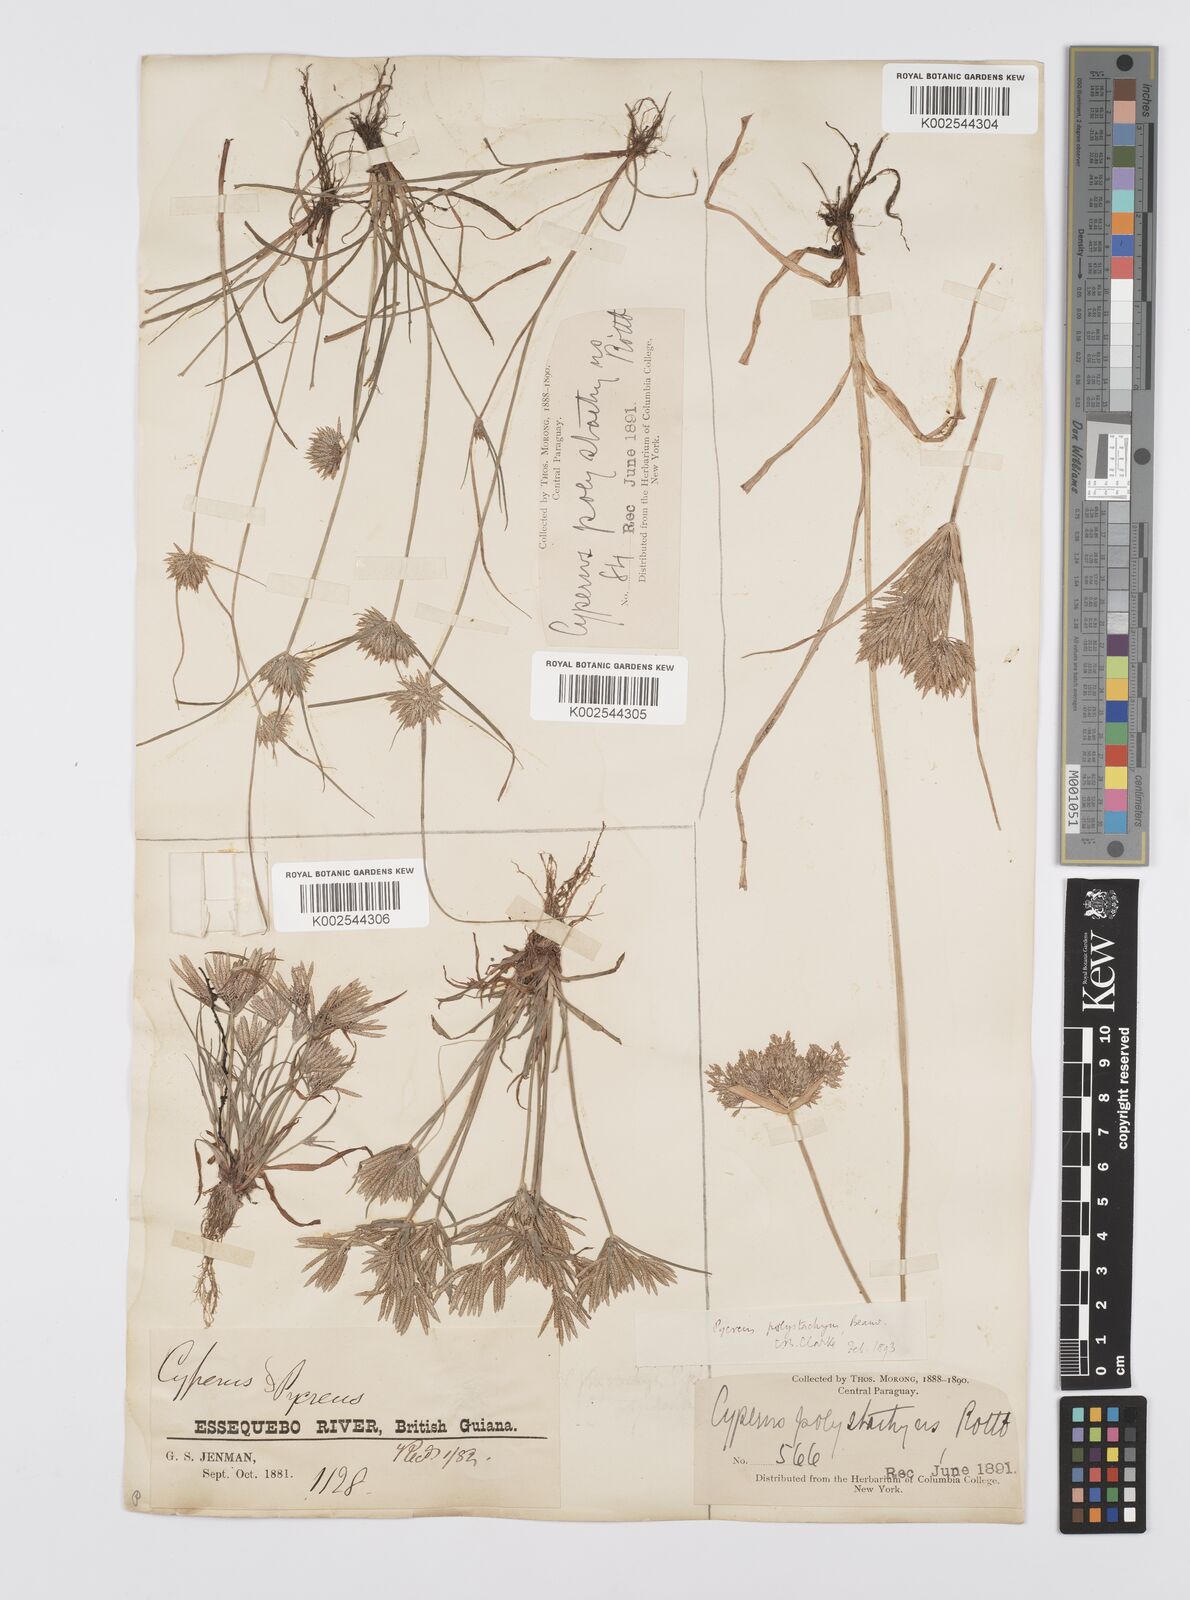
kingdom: Plantae
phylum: Tracheophyta
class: Liliopsida
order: Poales
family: Cyperaceae
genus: Cyperus
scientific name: Cyperus polystachyos
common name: Bunchy flat sedge
